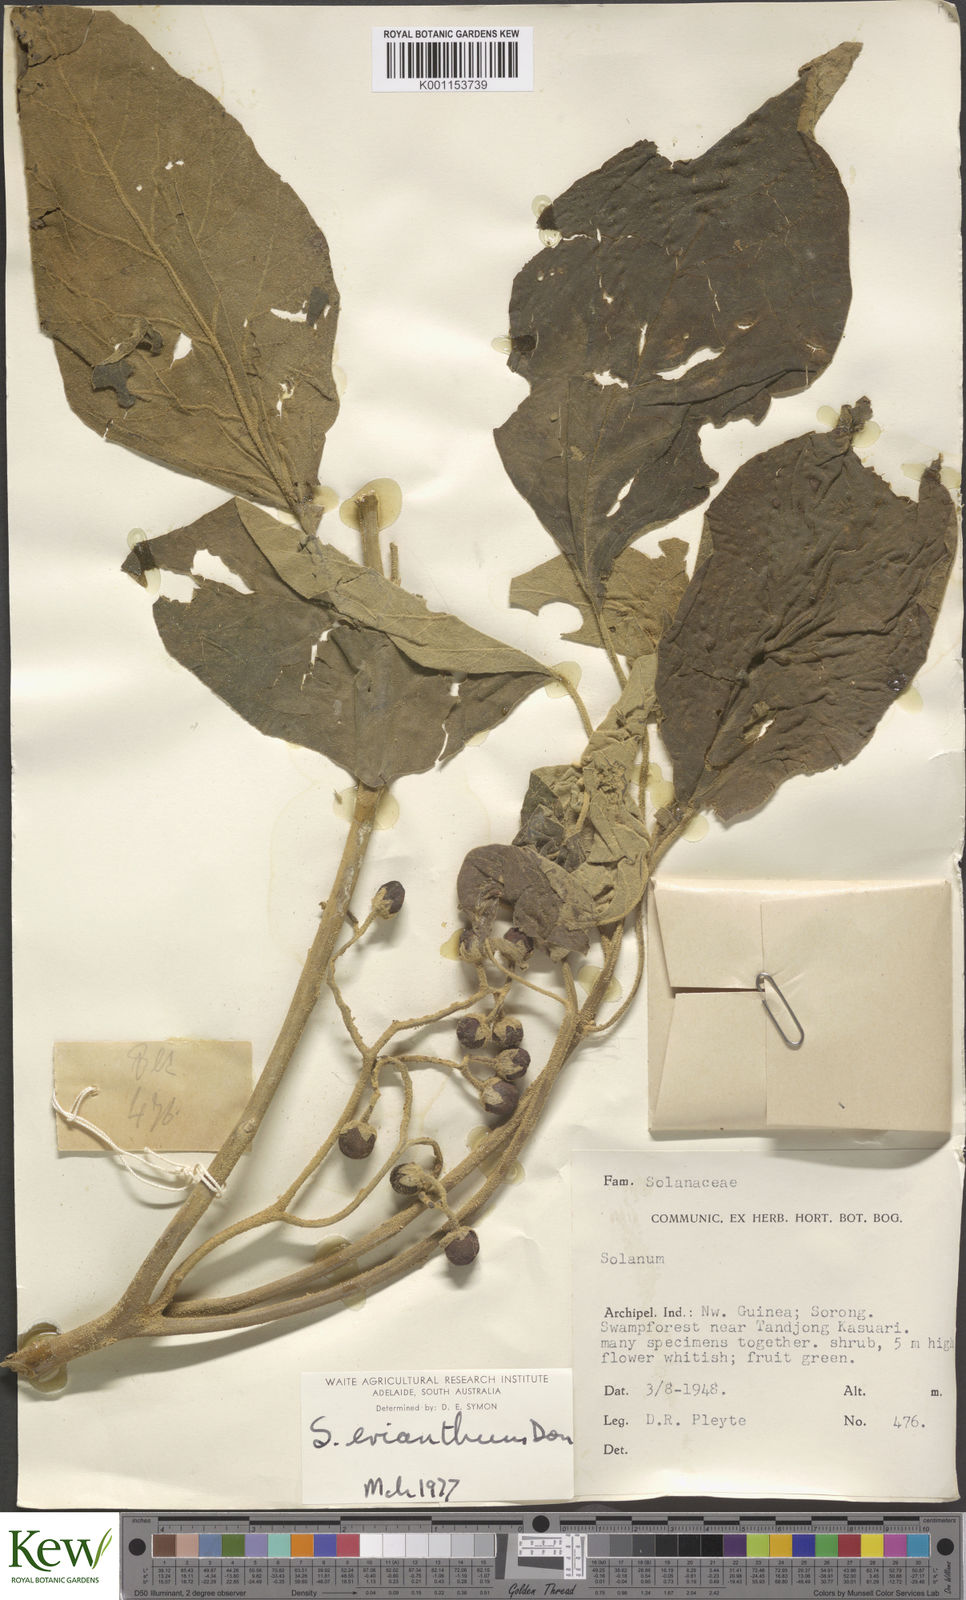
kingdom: Plantae
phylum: Tracheophyta
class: Magnoliopsida
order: Solanales
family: Solanaceae
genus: Solanum
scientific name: Solanum erianthum
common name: Tobacco-tree
